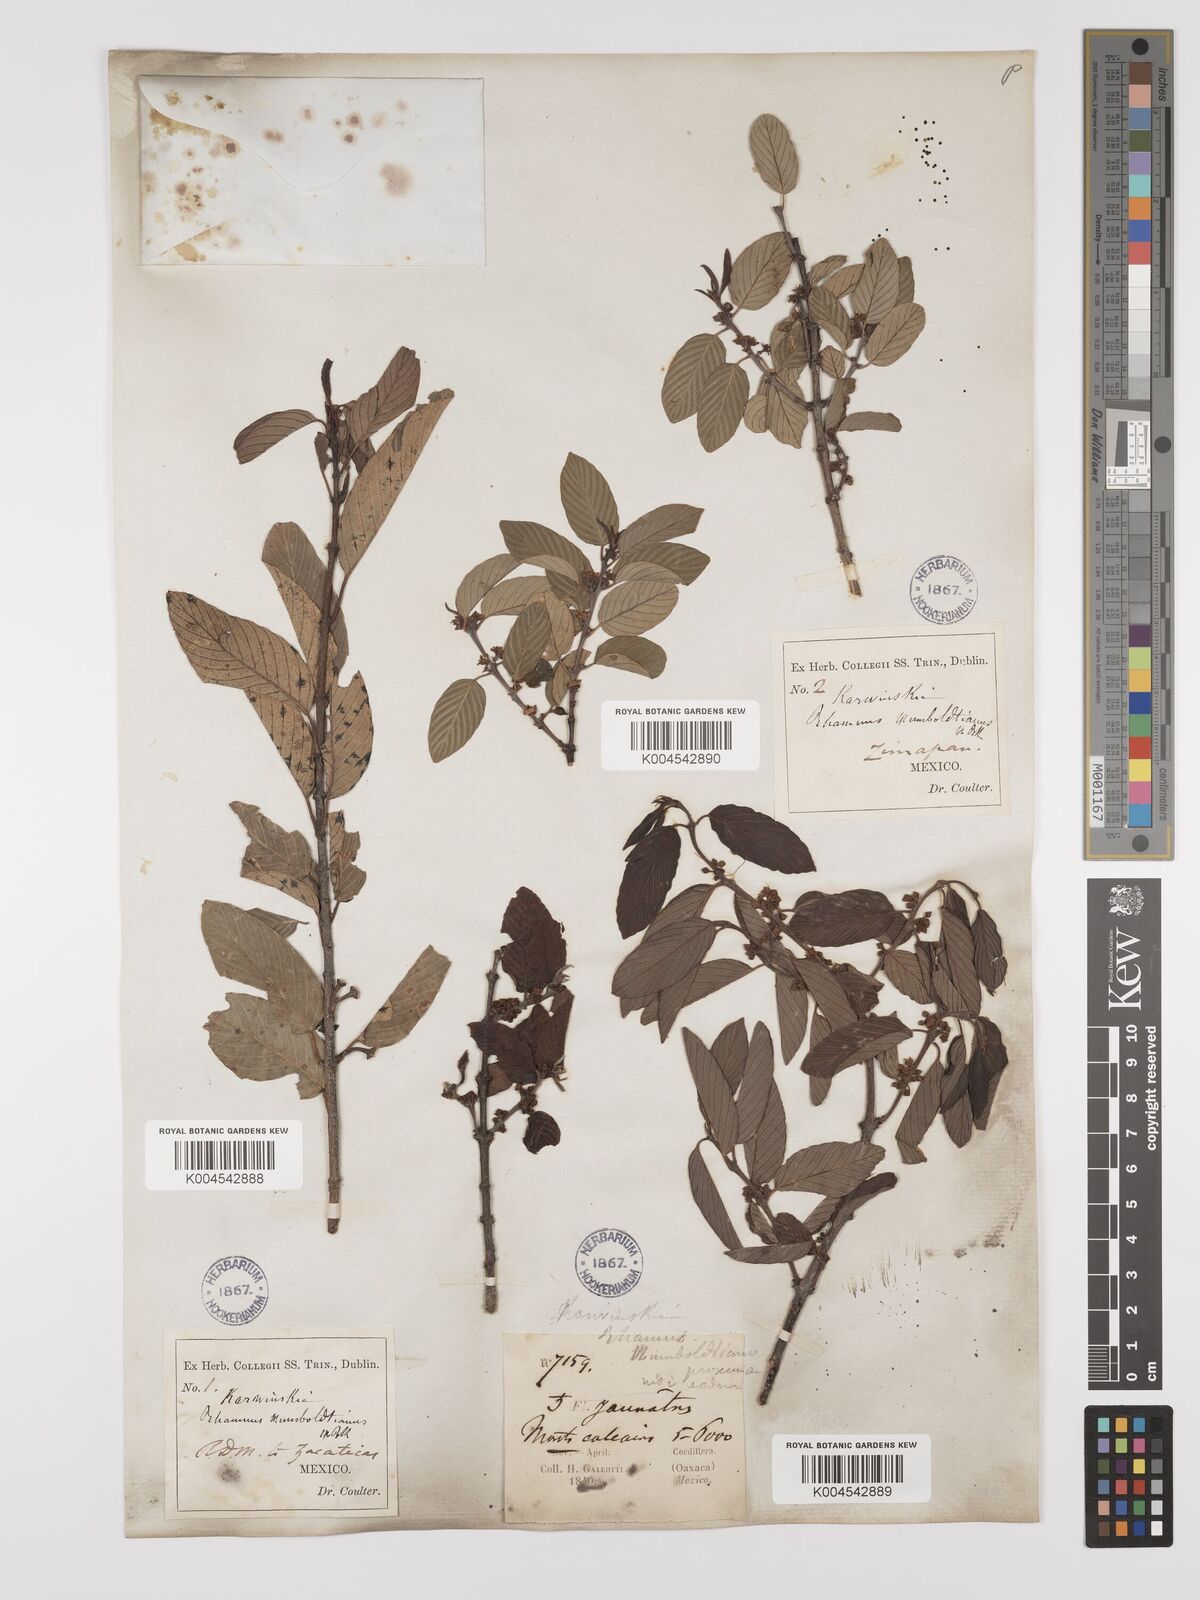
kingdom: Plantae
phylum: Tracheophyta
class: Magnoliopsida
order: Rosales
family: Rhamnaceae
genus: Karwinskia
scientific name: Karwinskia humboldtiana
